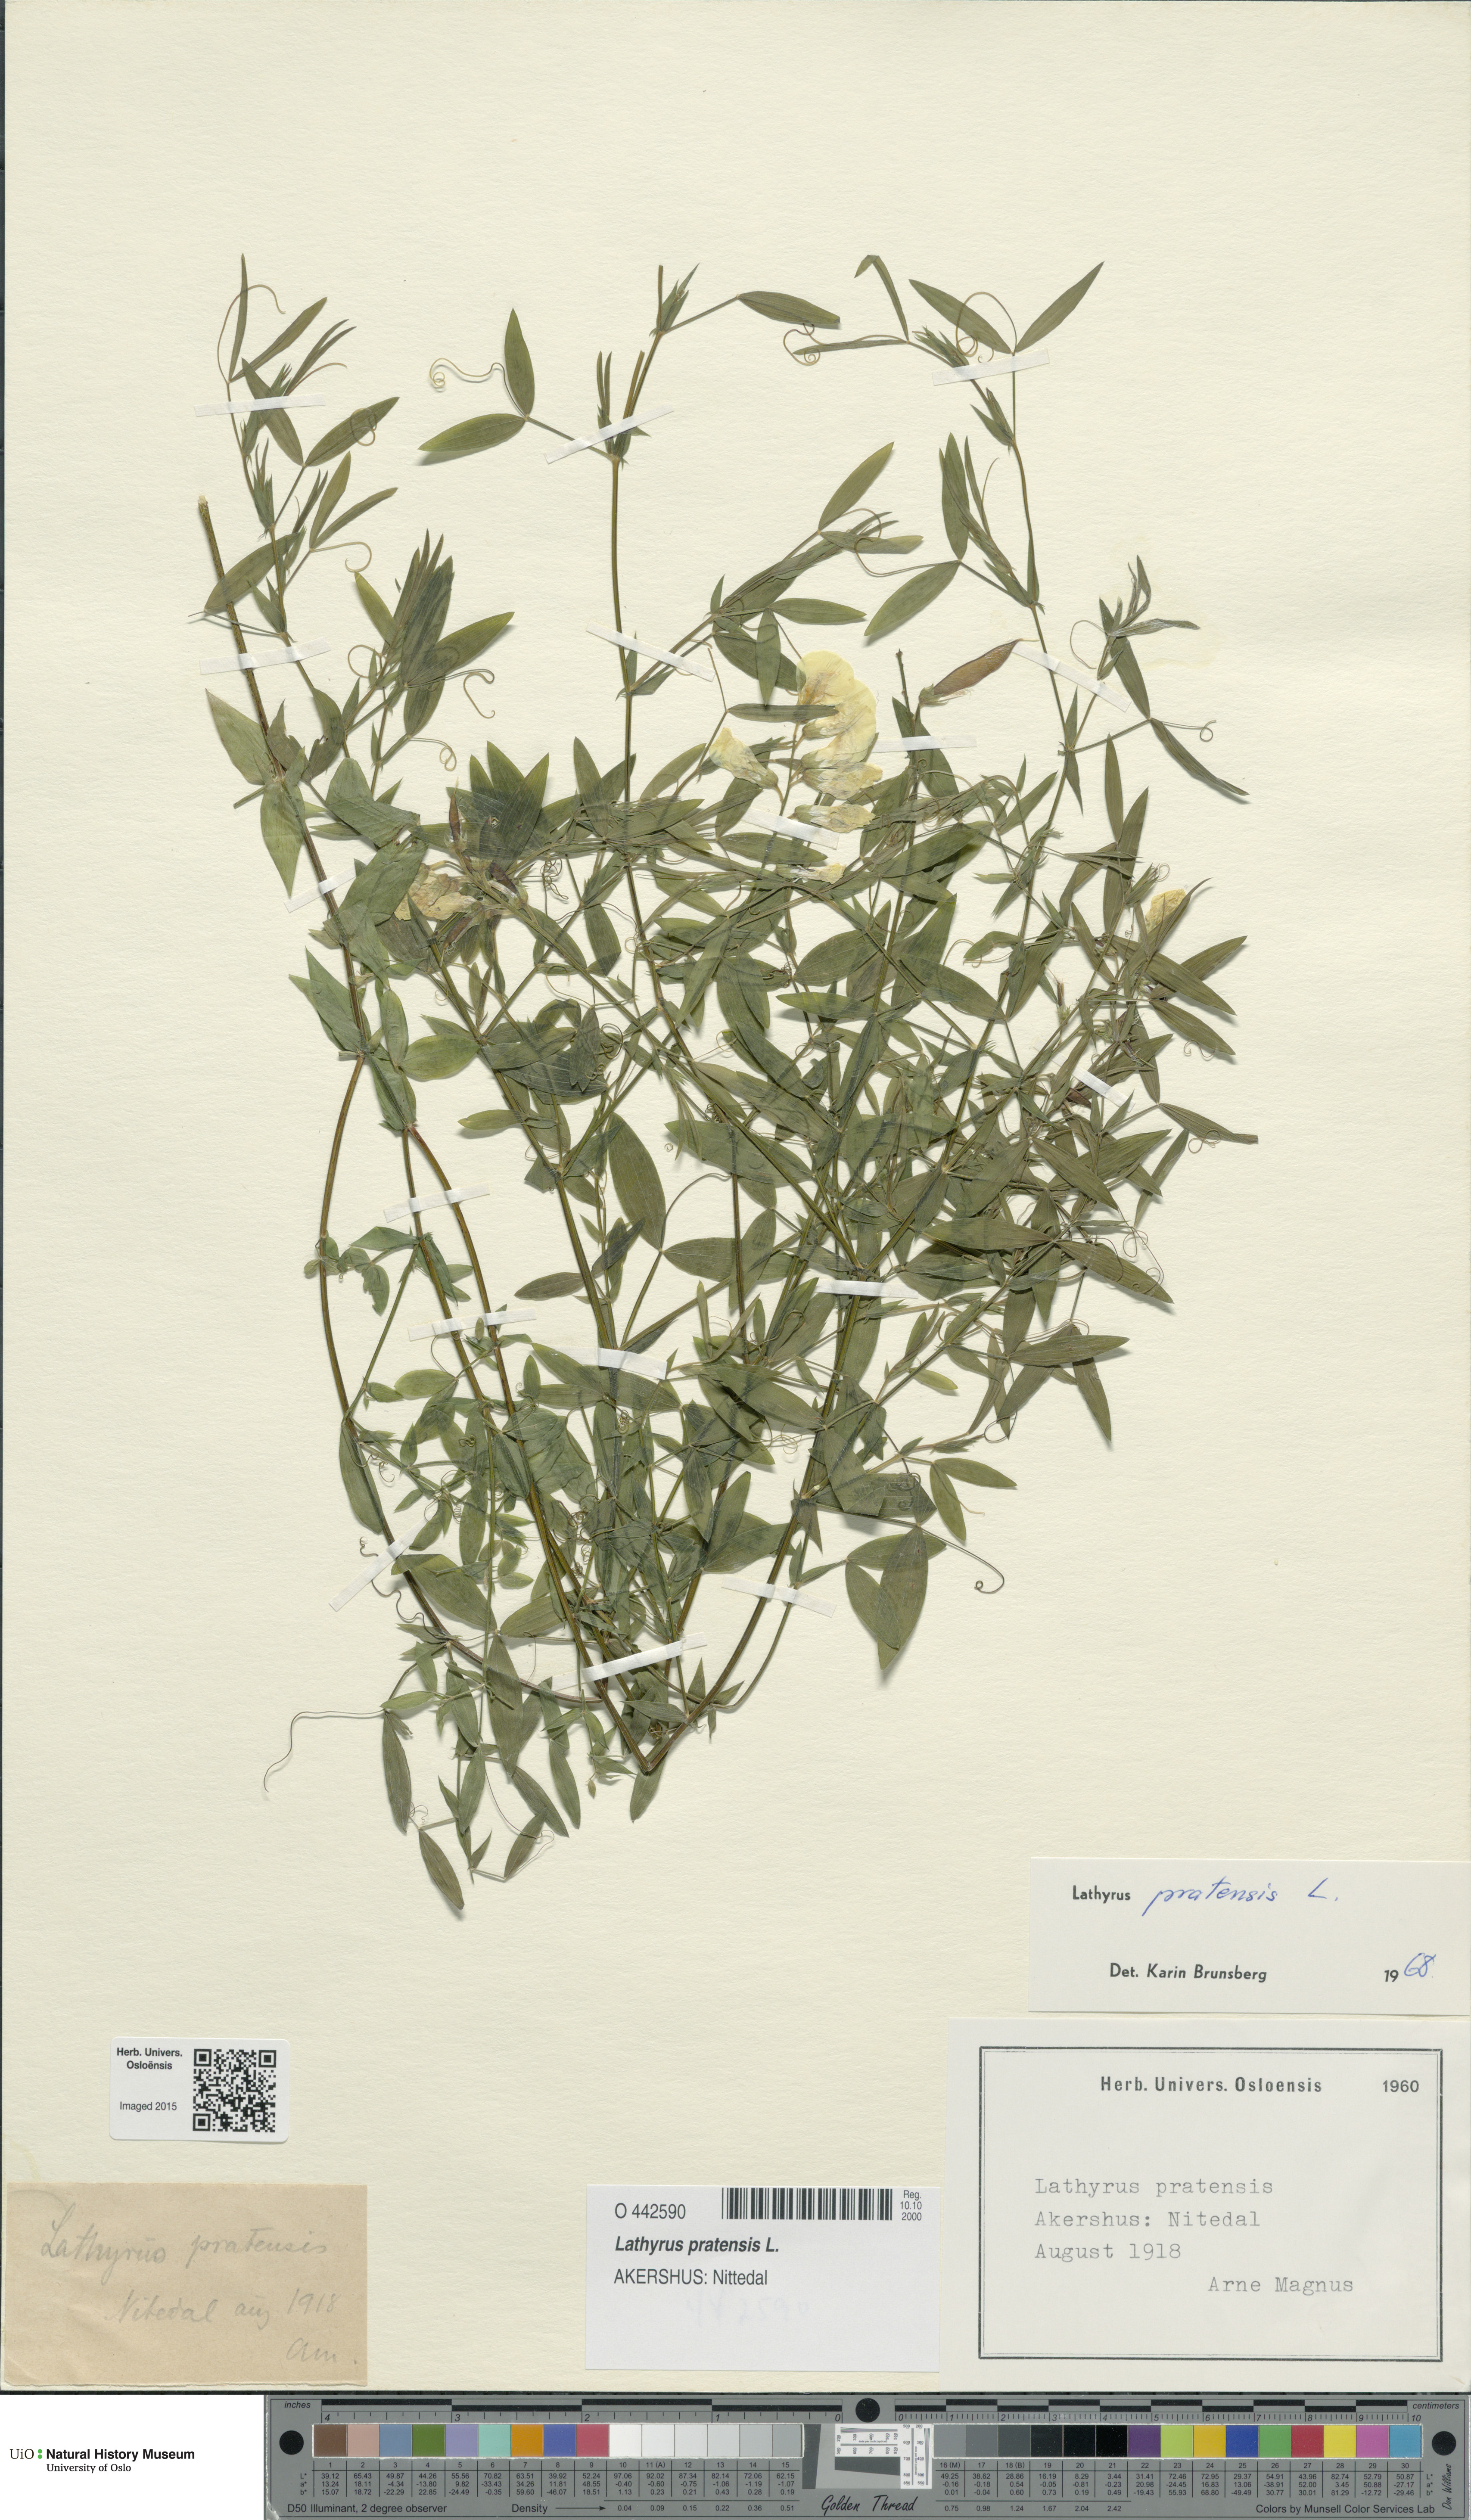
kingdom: Plantae
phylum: Tracheophyta
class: Magnoliopsida
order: Fabales
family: Fabaceae
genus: Lathyrus
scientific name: Lathyrus pratensis
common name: Meadow vetchling
